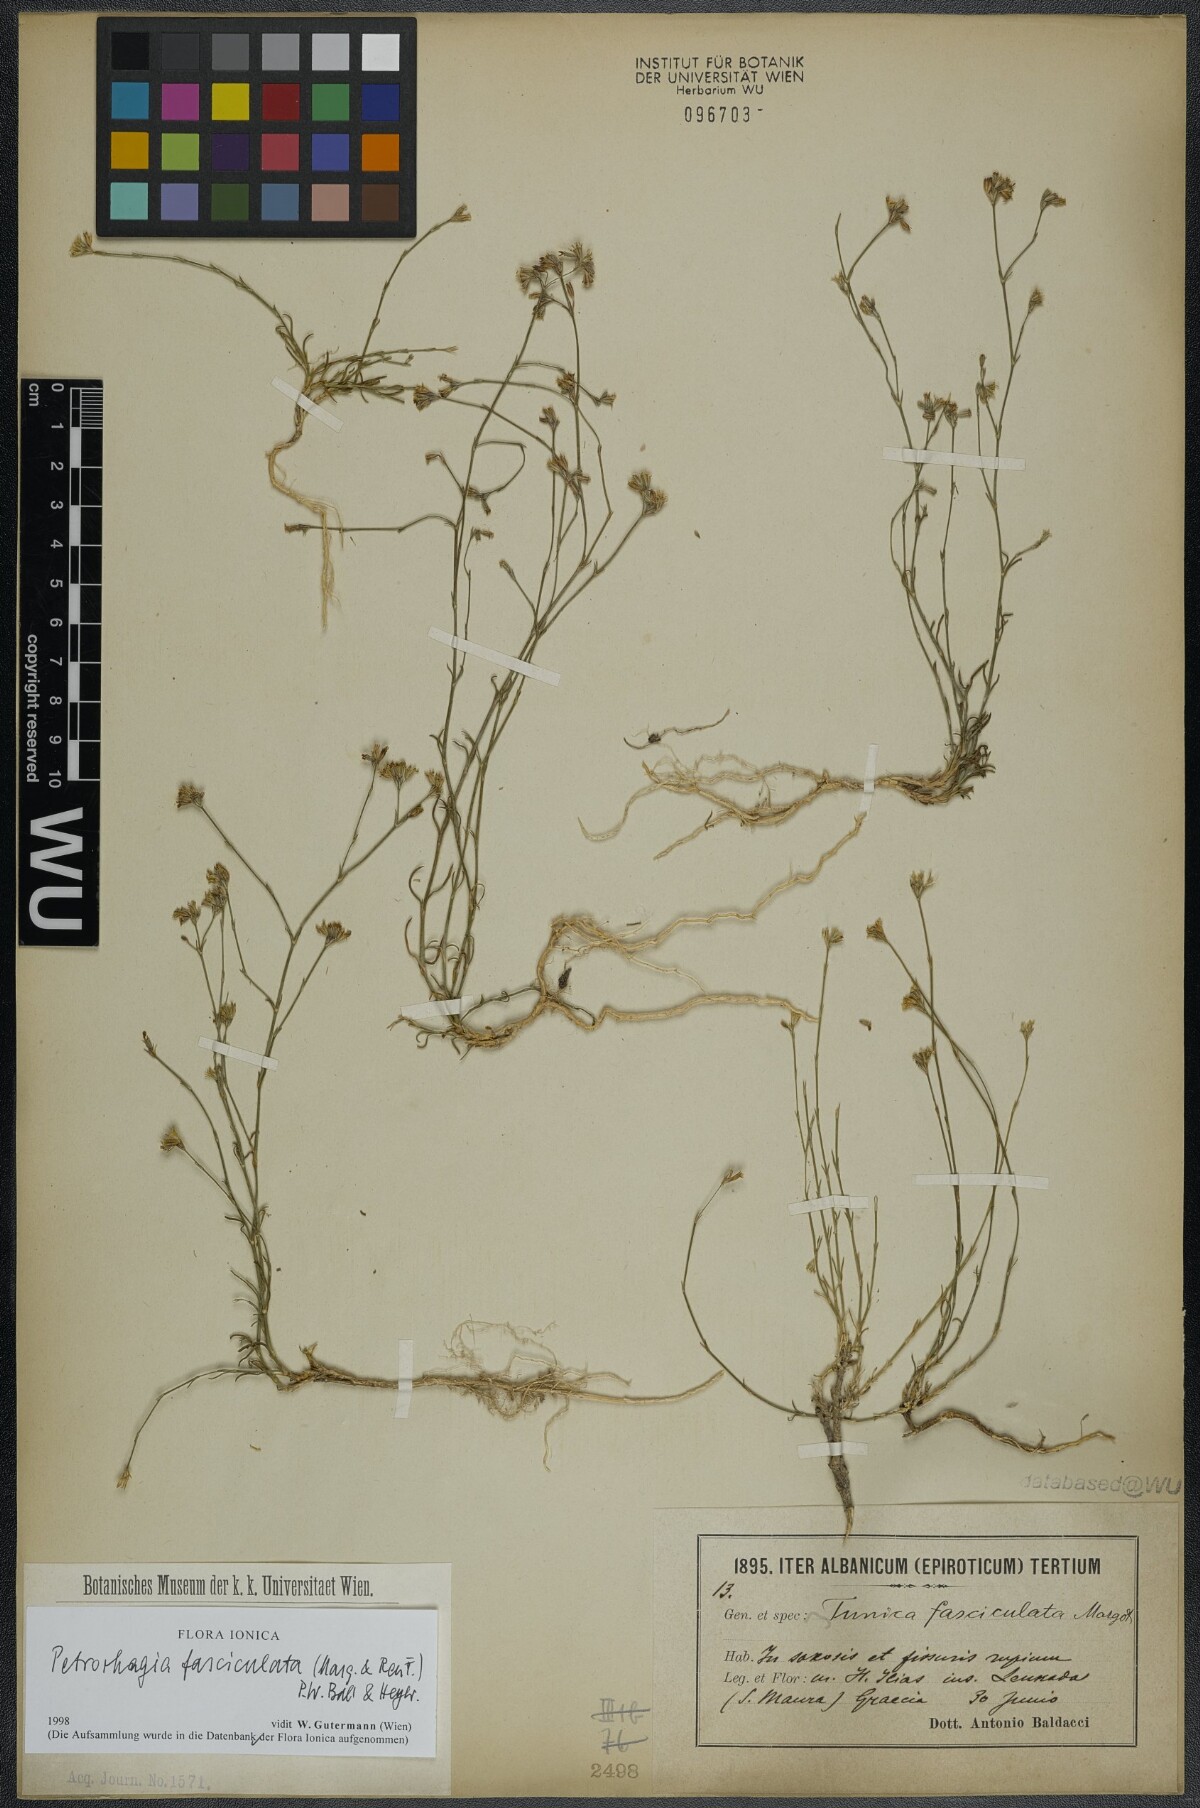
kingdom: Plantae
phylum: Tracheophyta
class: Magnoliopsida
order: Caryophyllales
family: Caryophyllaceae
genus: Petrorhagia
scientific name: Petrorhagia fasciculata
